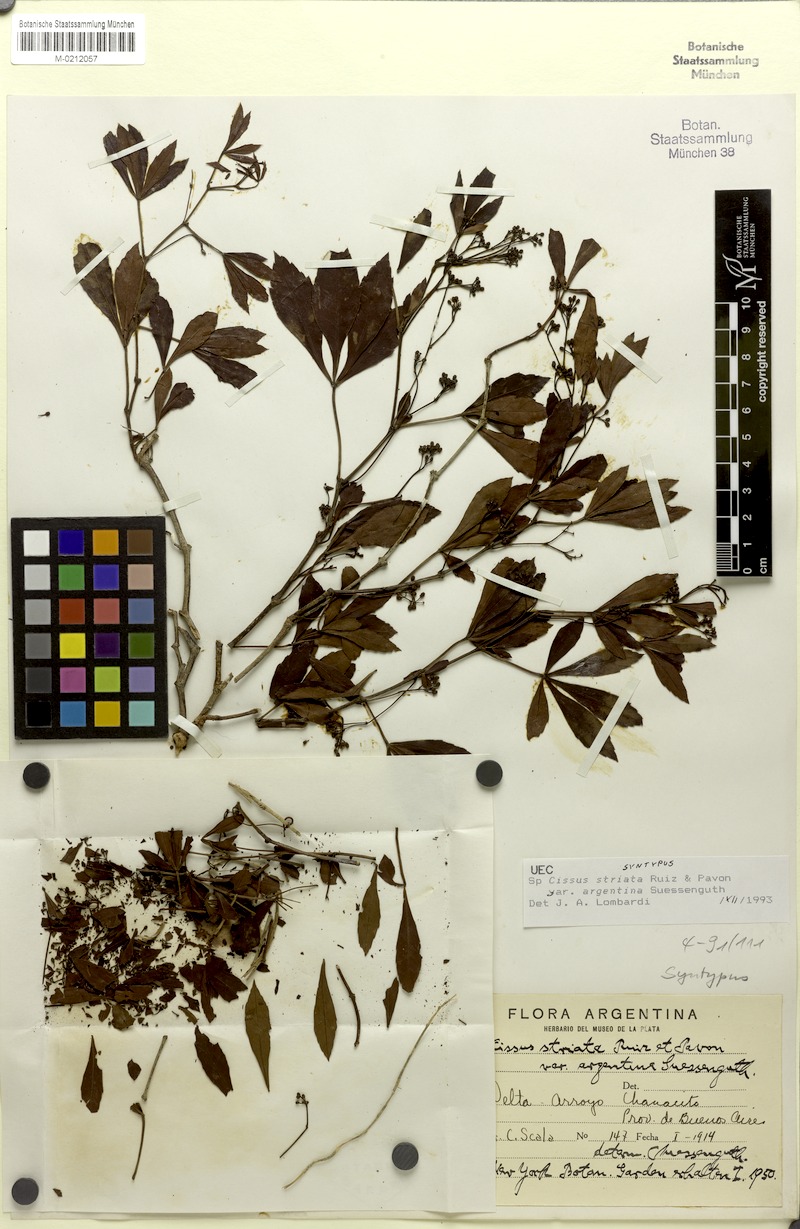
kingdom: Plantae
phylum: Tracheophyta
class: Magnoliopsida
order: Vitales
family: Vitaceae
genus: Clematicissus
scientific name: Clematicissus striata
